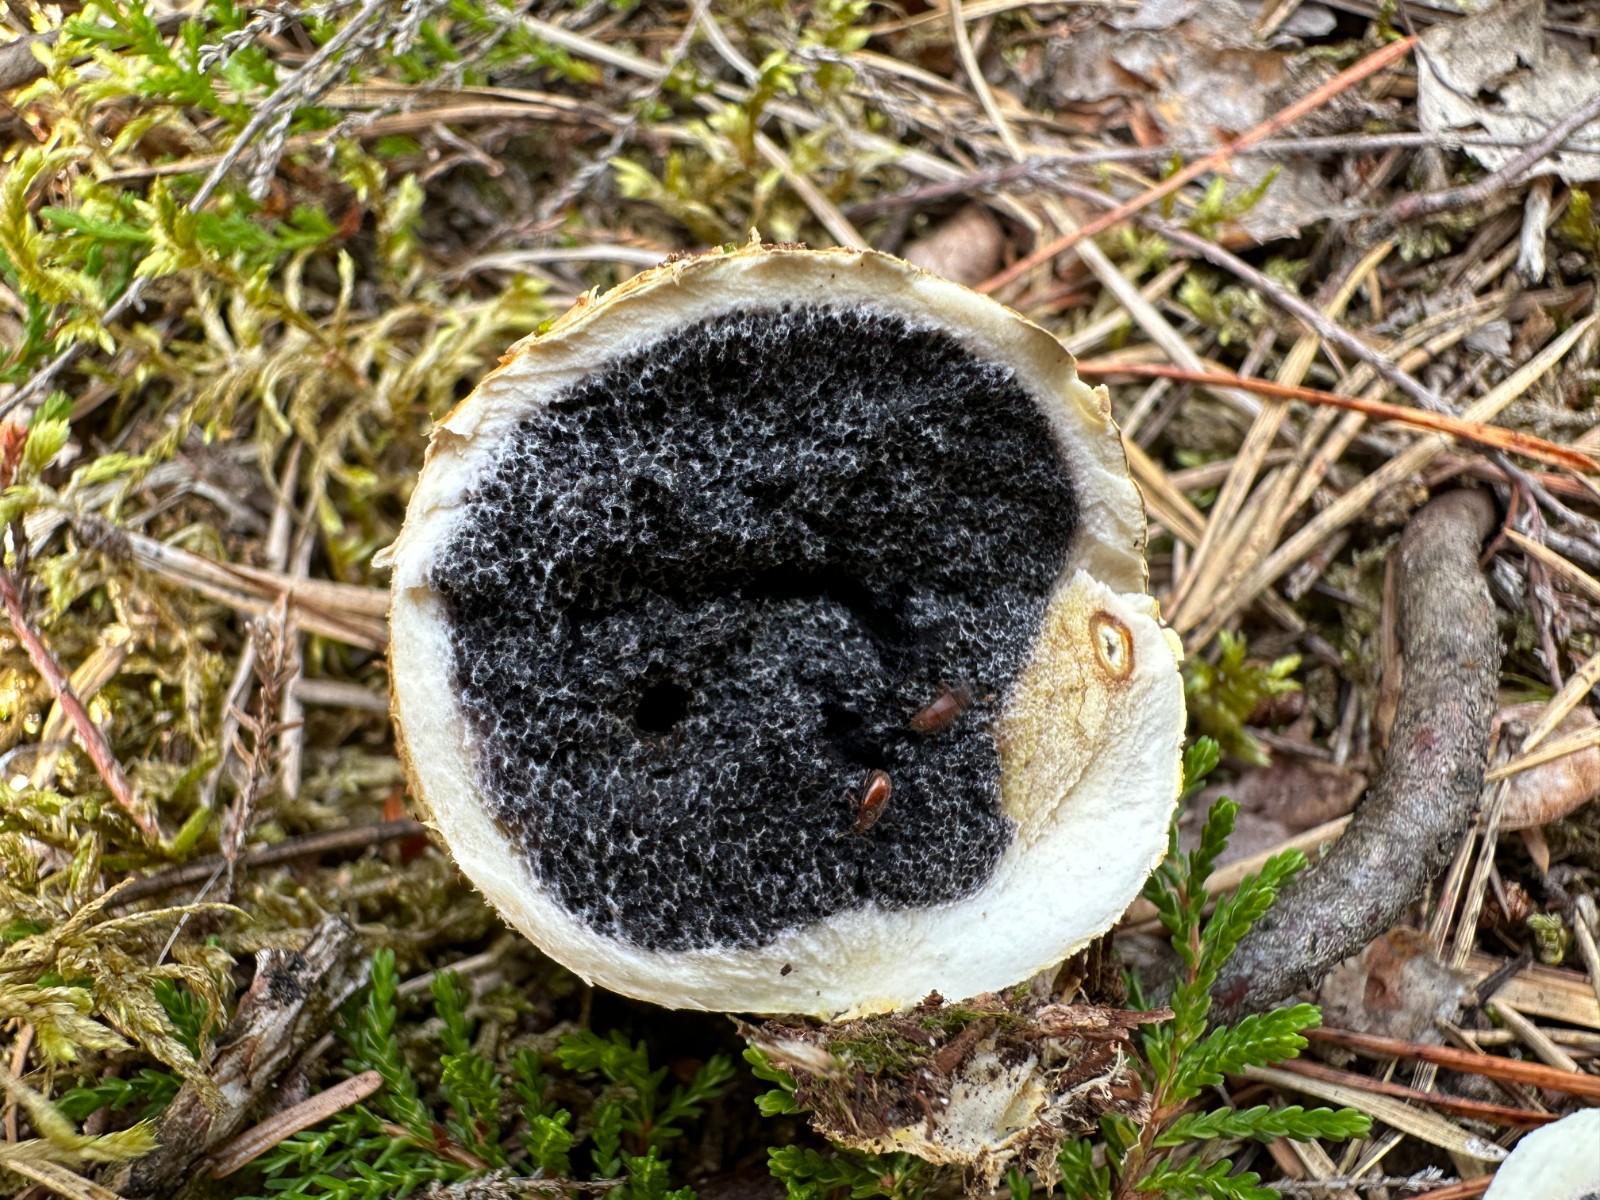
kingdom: Fungi
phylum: Basidiomycota
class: Agaricomycetes
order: Boletales
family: Sclerodermataceae
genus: Scleroderma
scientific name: Scleroderma citrinum
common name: almindelig bruskbold
